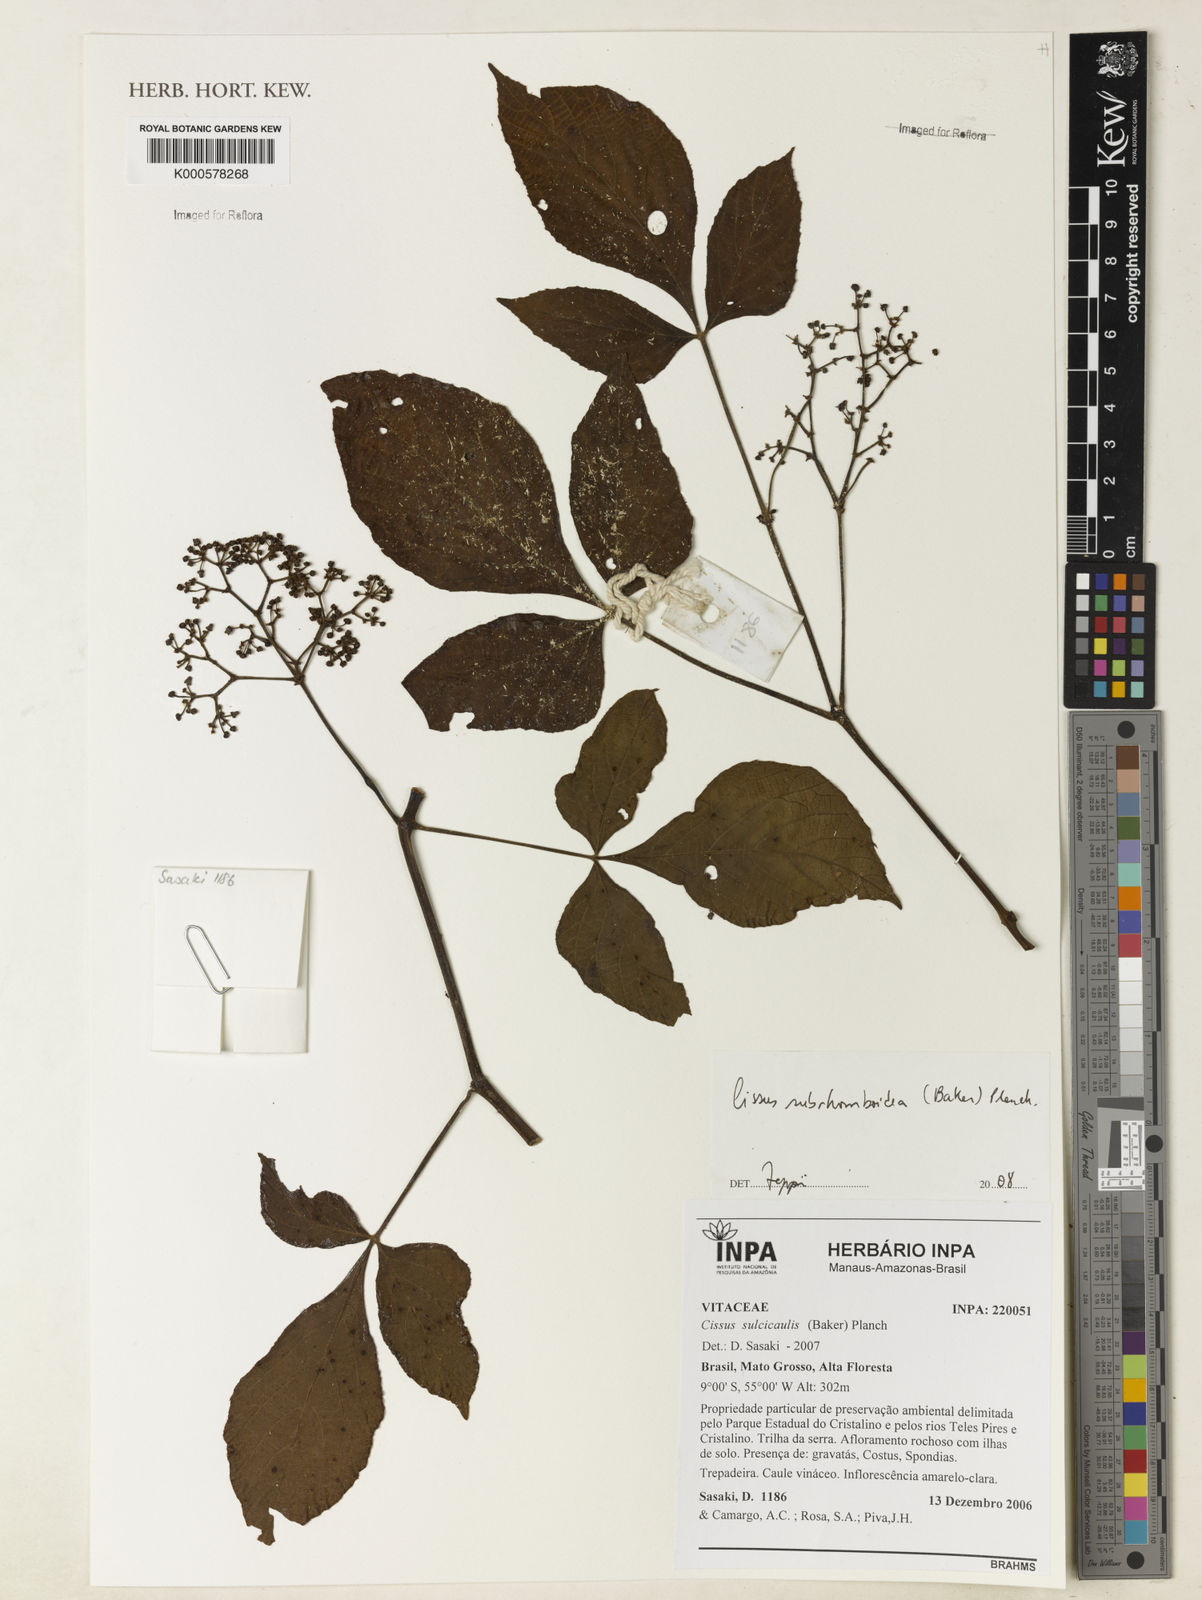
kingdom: Plantae
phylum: Tracheophyta
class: Magnoliopsida
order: Vitales
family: Vitaceae
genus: Cissus
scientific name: Cissus subrhomboidea
